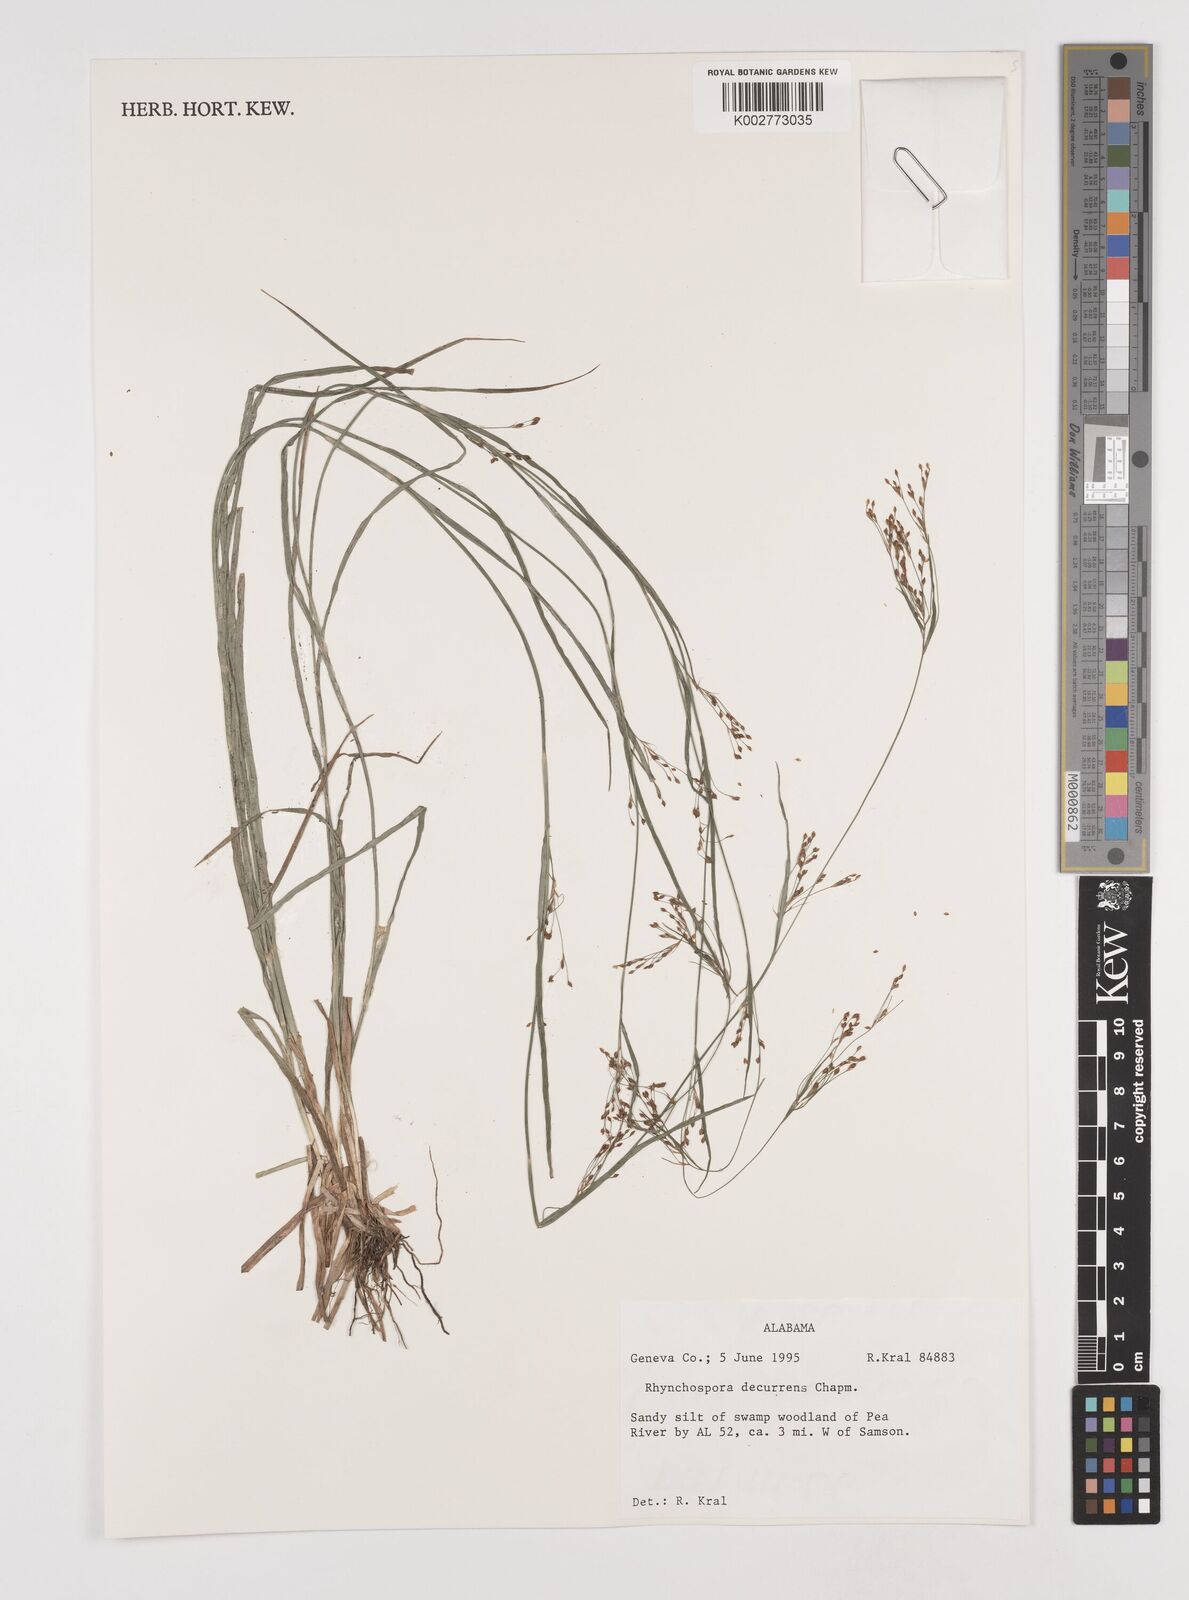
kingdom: Plantae
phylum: Tracheophyta
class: Liliopsida
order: Poales
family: Cyperaceae
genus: Rhynchospora
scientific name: Rhynchospora decurrens
